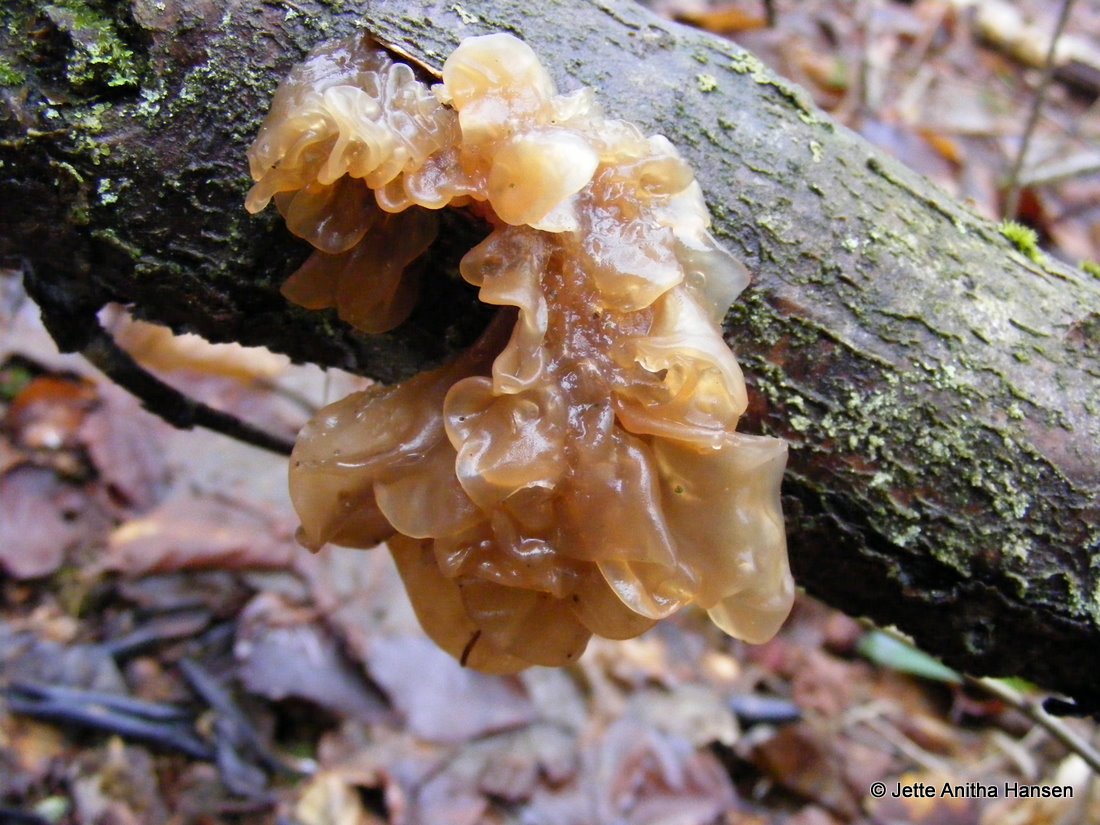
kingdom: Fungi
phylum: Basidiomycota
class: Tremellomycetes
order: Tremellales
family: Tremellaceae
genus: Phaeotremella
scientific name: Phaeotremella frondosa
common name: kæmpe-bævresvamp
